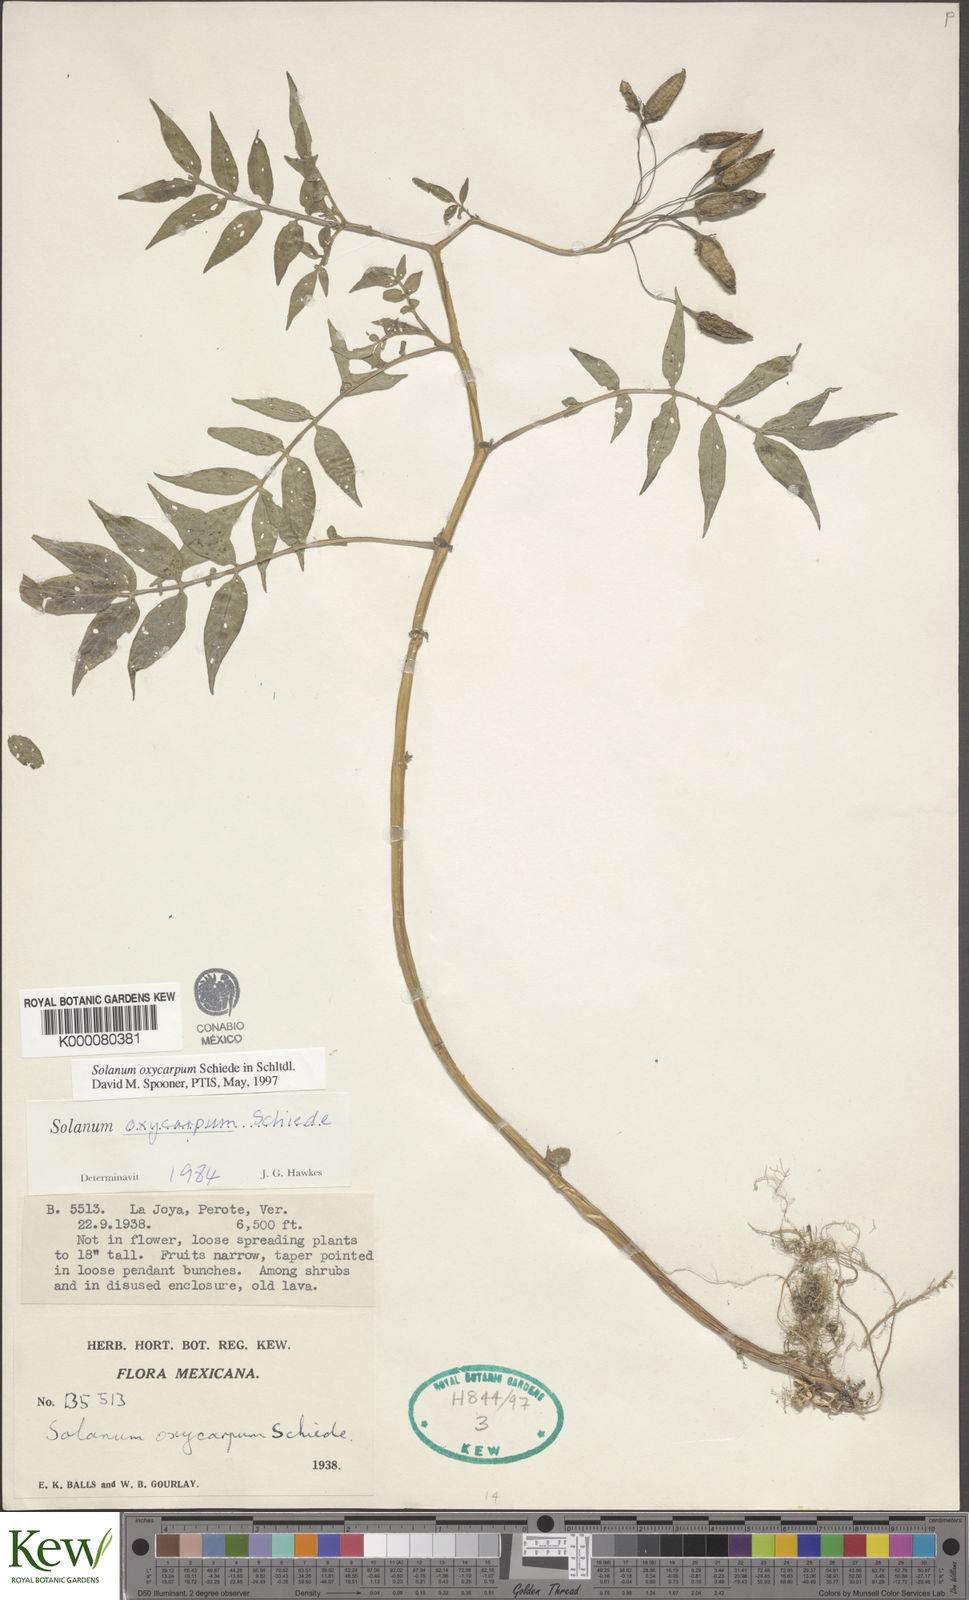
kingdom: Plantae
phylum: Tracheophyta
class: Magnoliopsida
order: Solanales
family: Solanaceae
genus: Solanum
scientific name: Solanum oxycarpum
